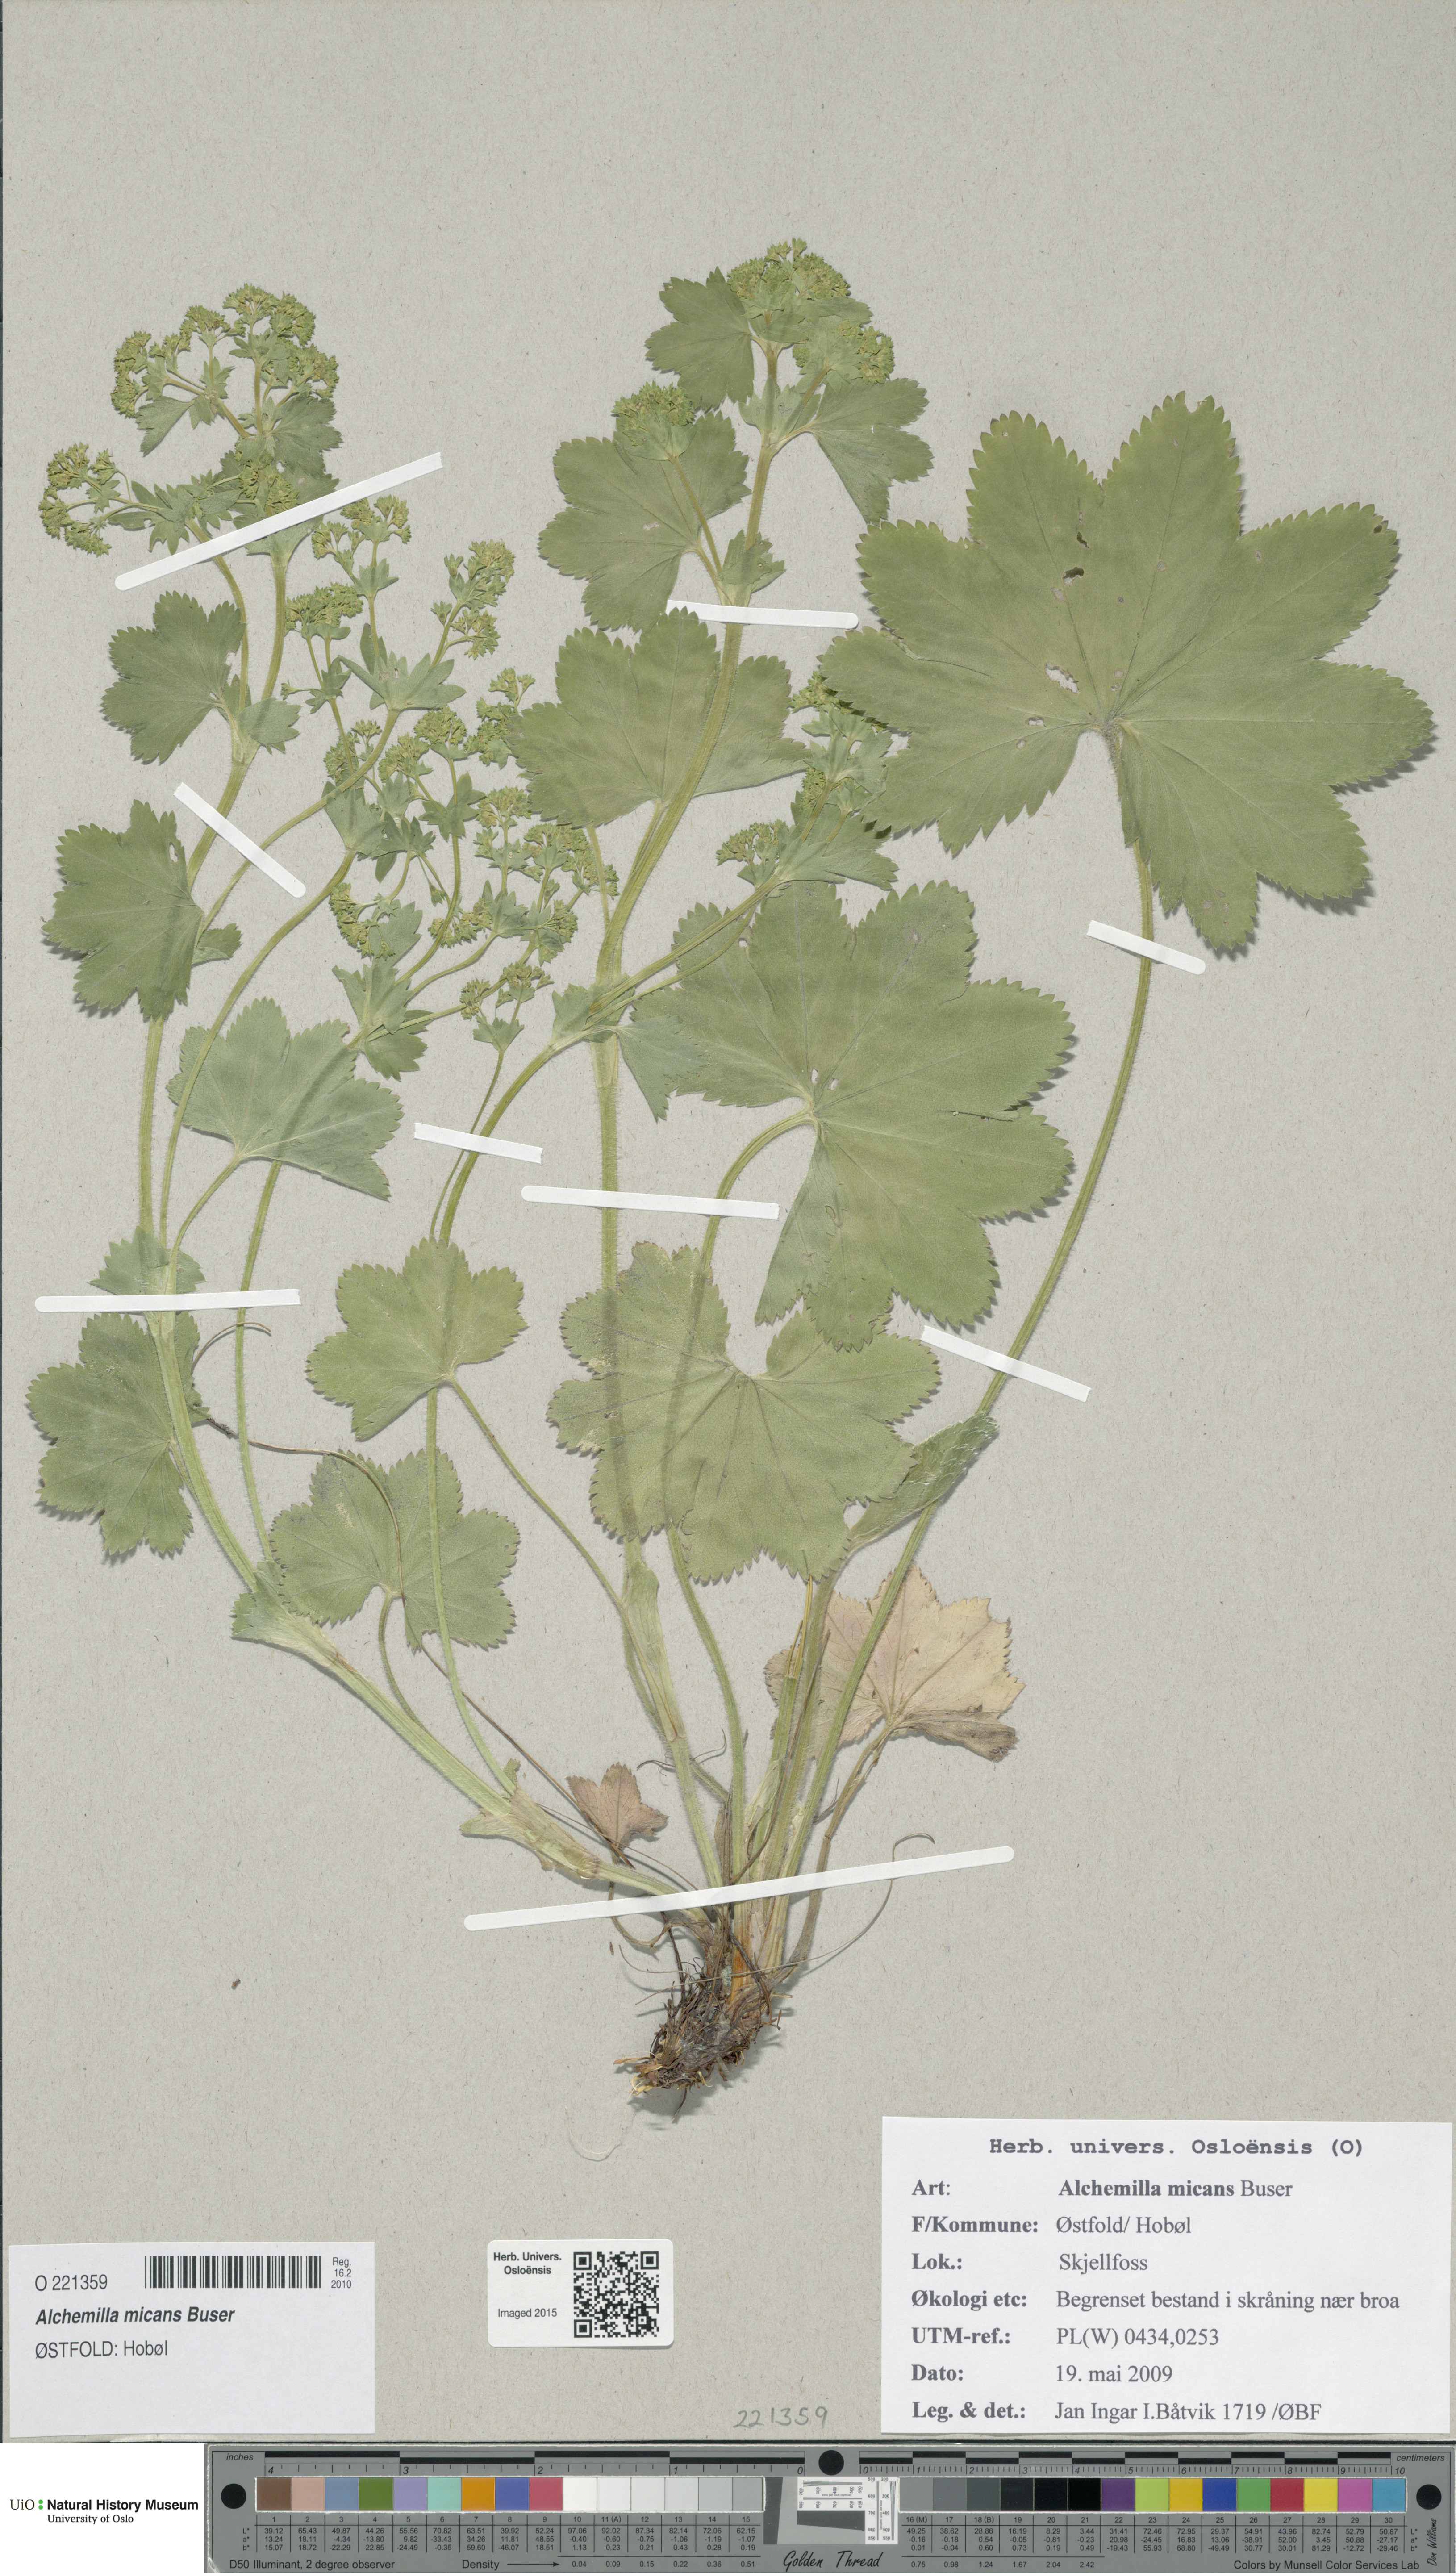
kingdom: Plantae
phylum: Tracheophyta
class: Magnoliopsida
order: Rosales
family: Rosaceae
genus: Alchemilla
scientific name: Alchemilla micans
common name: Gleaming lady's mantle
